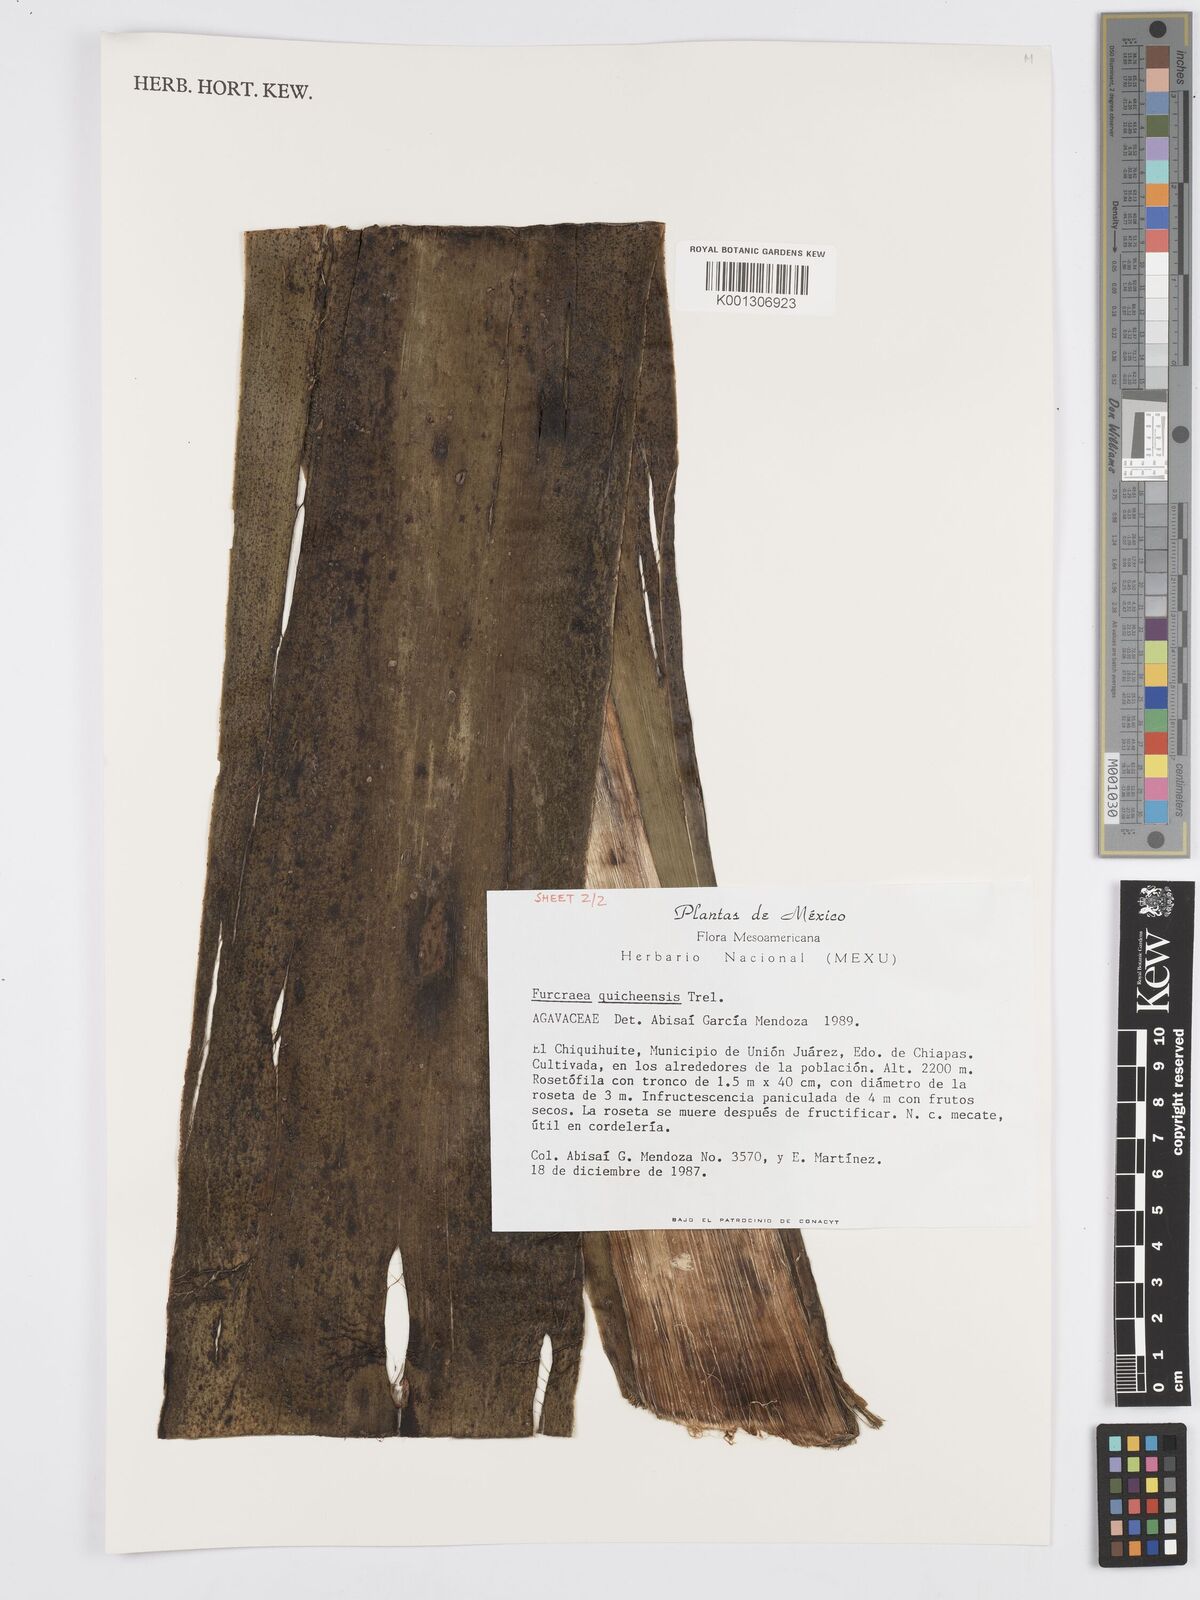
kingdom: Plantae
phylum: Tracheophyta
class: Liliopsida
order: Asparagales
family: Asparagaceae
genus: Furcraea
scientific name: Furcraea quicheensis
